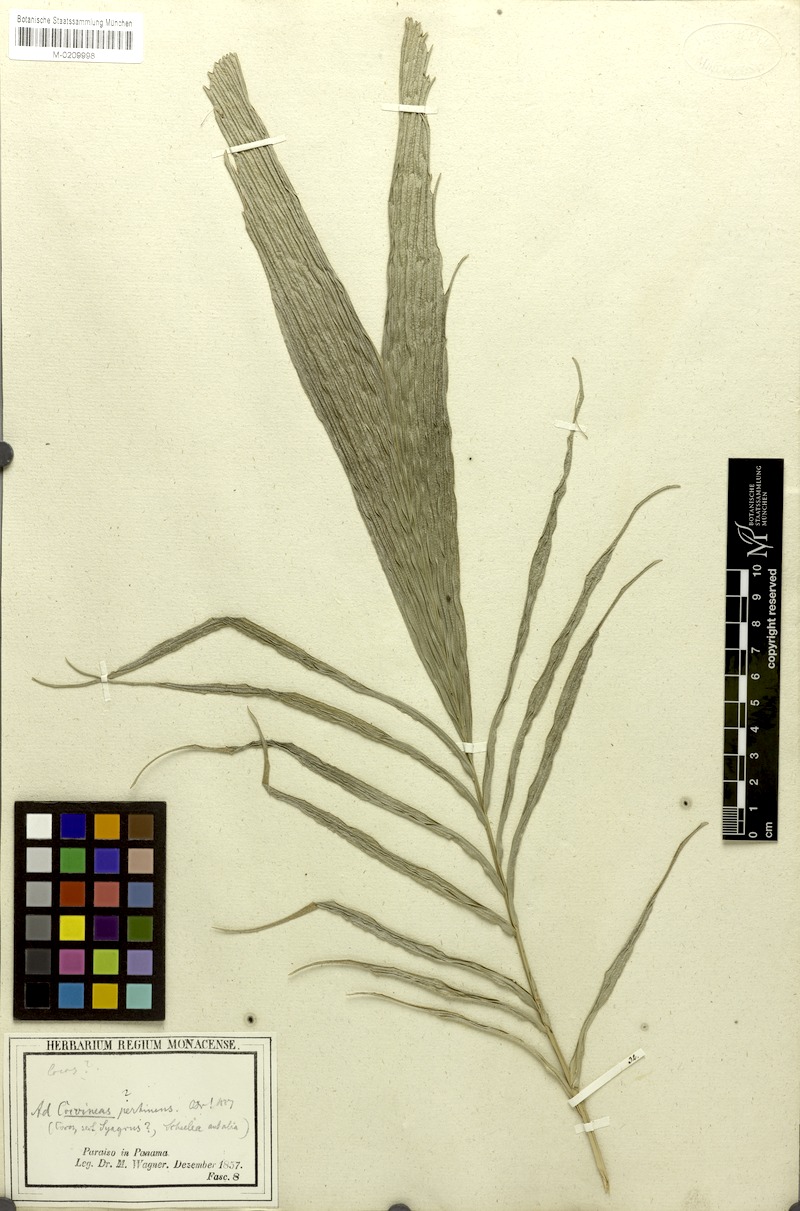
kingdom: Plantae
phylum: Tracheophyta
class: Liliopsida
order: Arecales
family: Arecaceae
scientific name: Arecaceae
